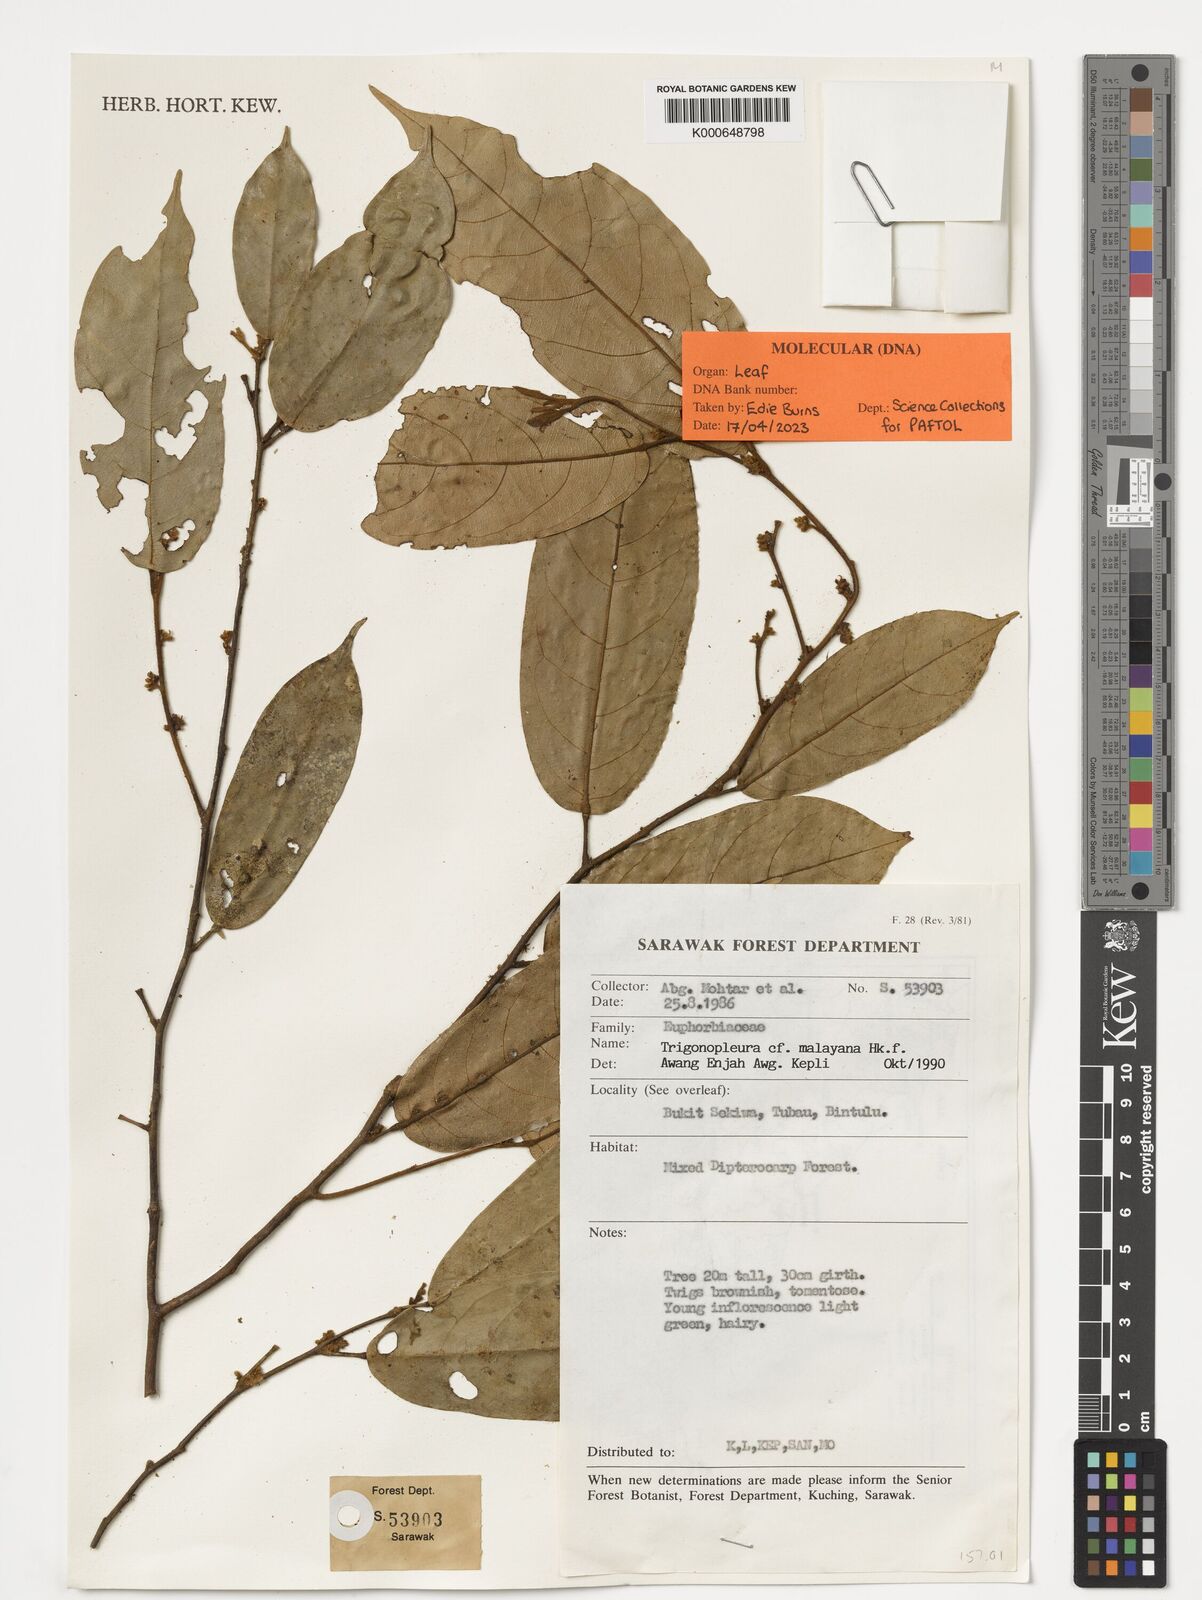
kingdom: Plantae
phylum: Tracheophyta
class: Magnoliopsida
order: Malpighiales
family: Peraceae
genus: Trigonopleura
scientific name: Trigonopleura malayana
